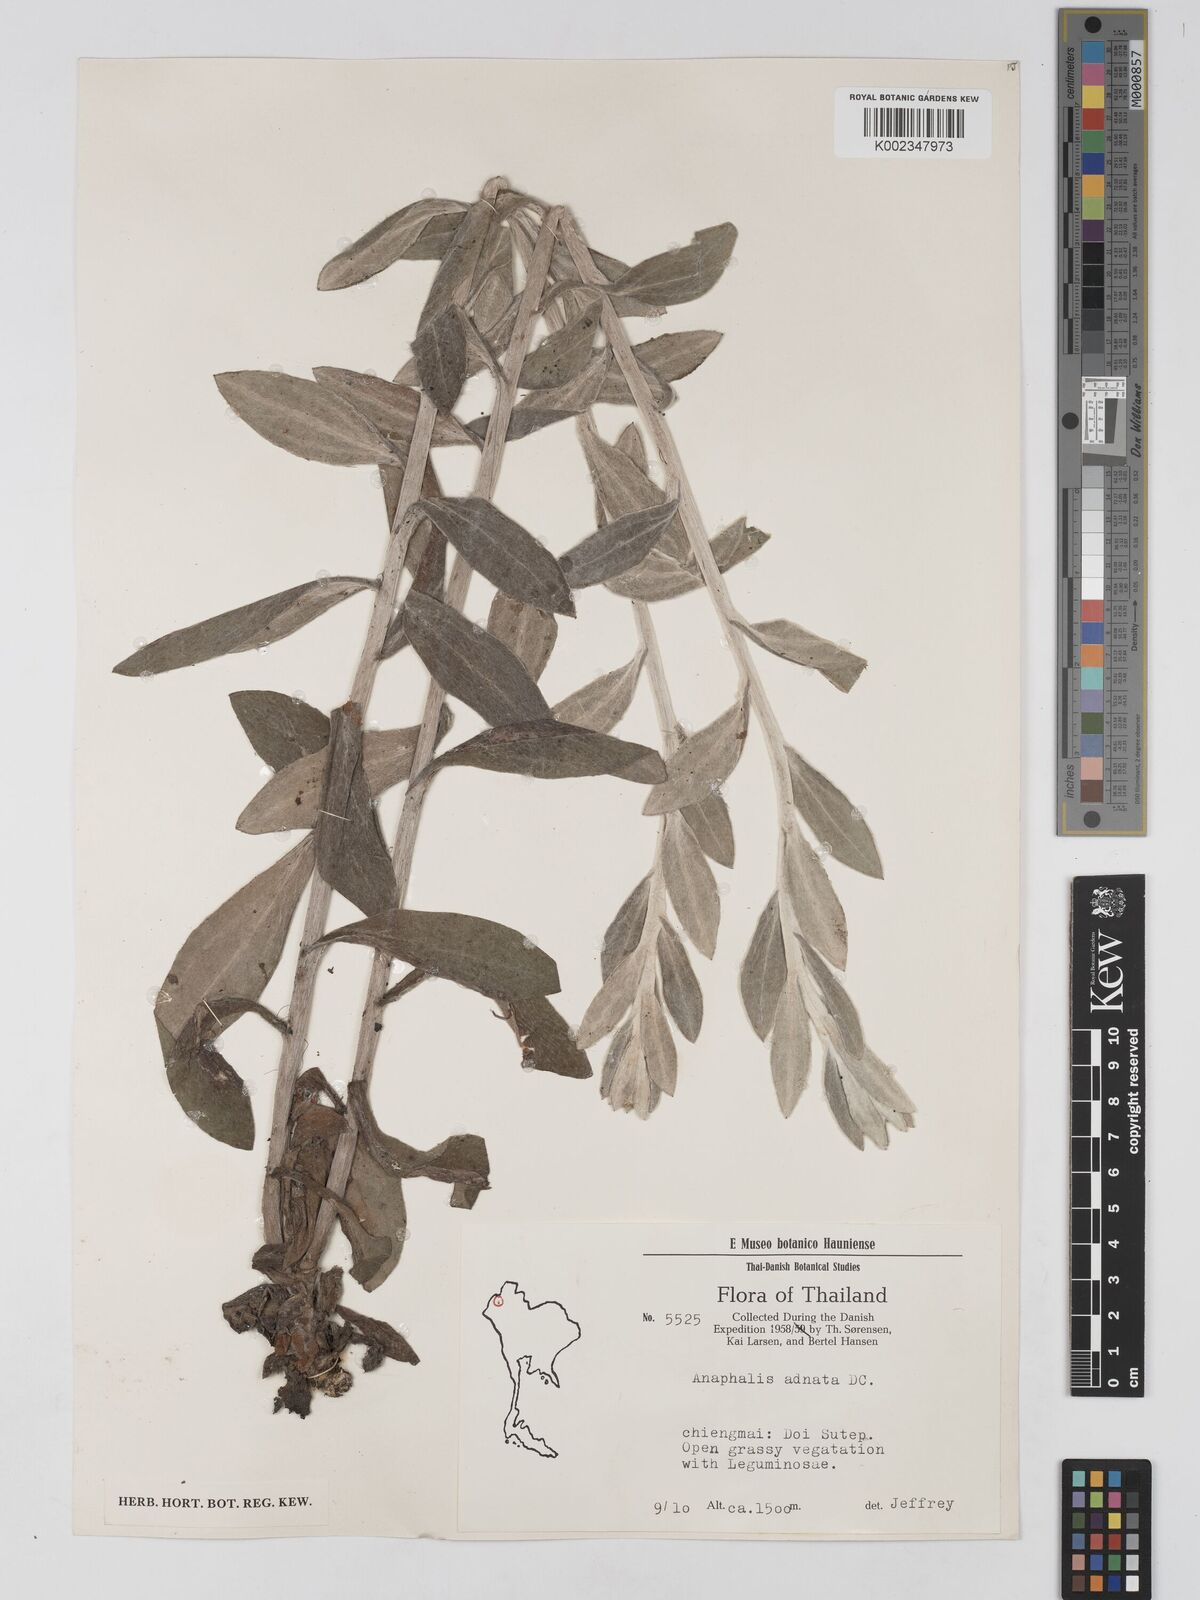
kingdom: Plantae
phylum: Tracheophyta
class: Magnoliopsida
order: Asterales
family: Asteraceae
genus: Pseudognaphalium
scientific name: Pseudognaphalium adnatum
